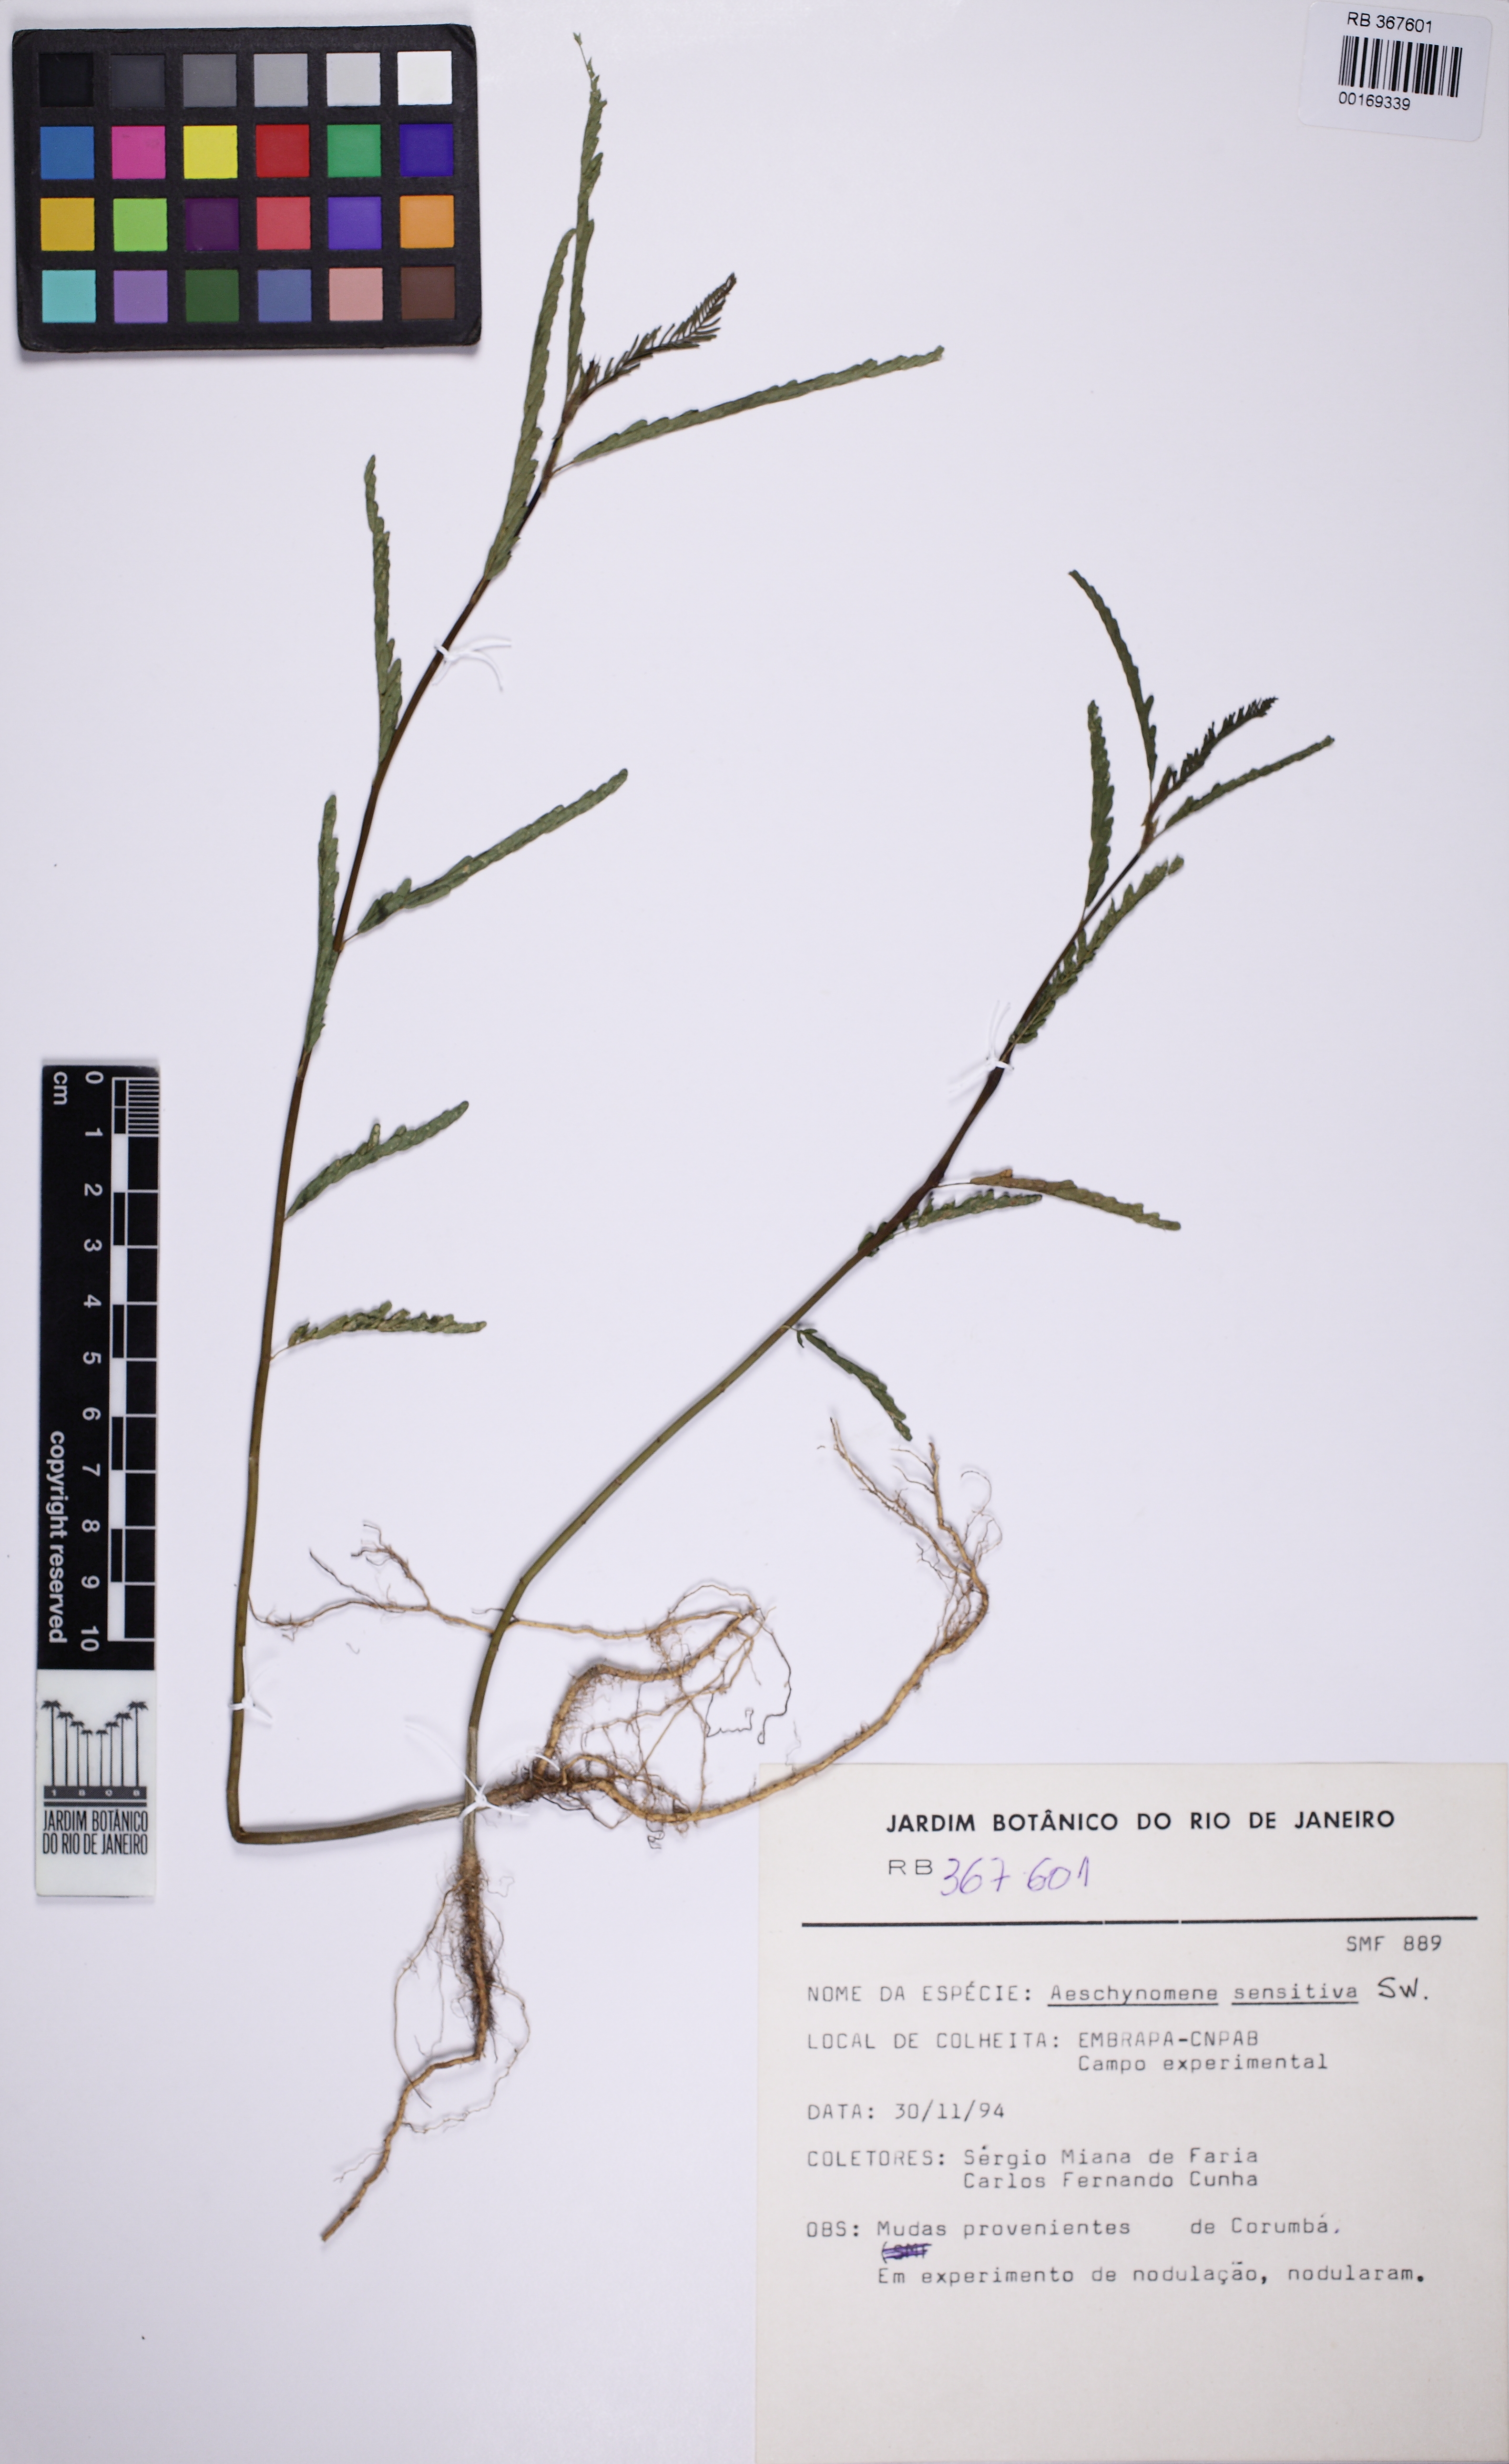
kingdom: Plantae
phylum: Tracheophyta
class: Magnoliopsida
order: Fabales
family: Fabaceae
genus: Aeschynomene
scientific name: Aeschynomene sensitiva
